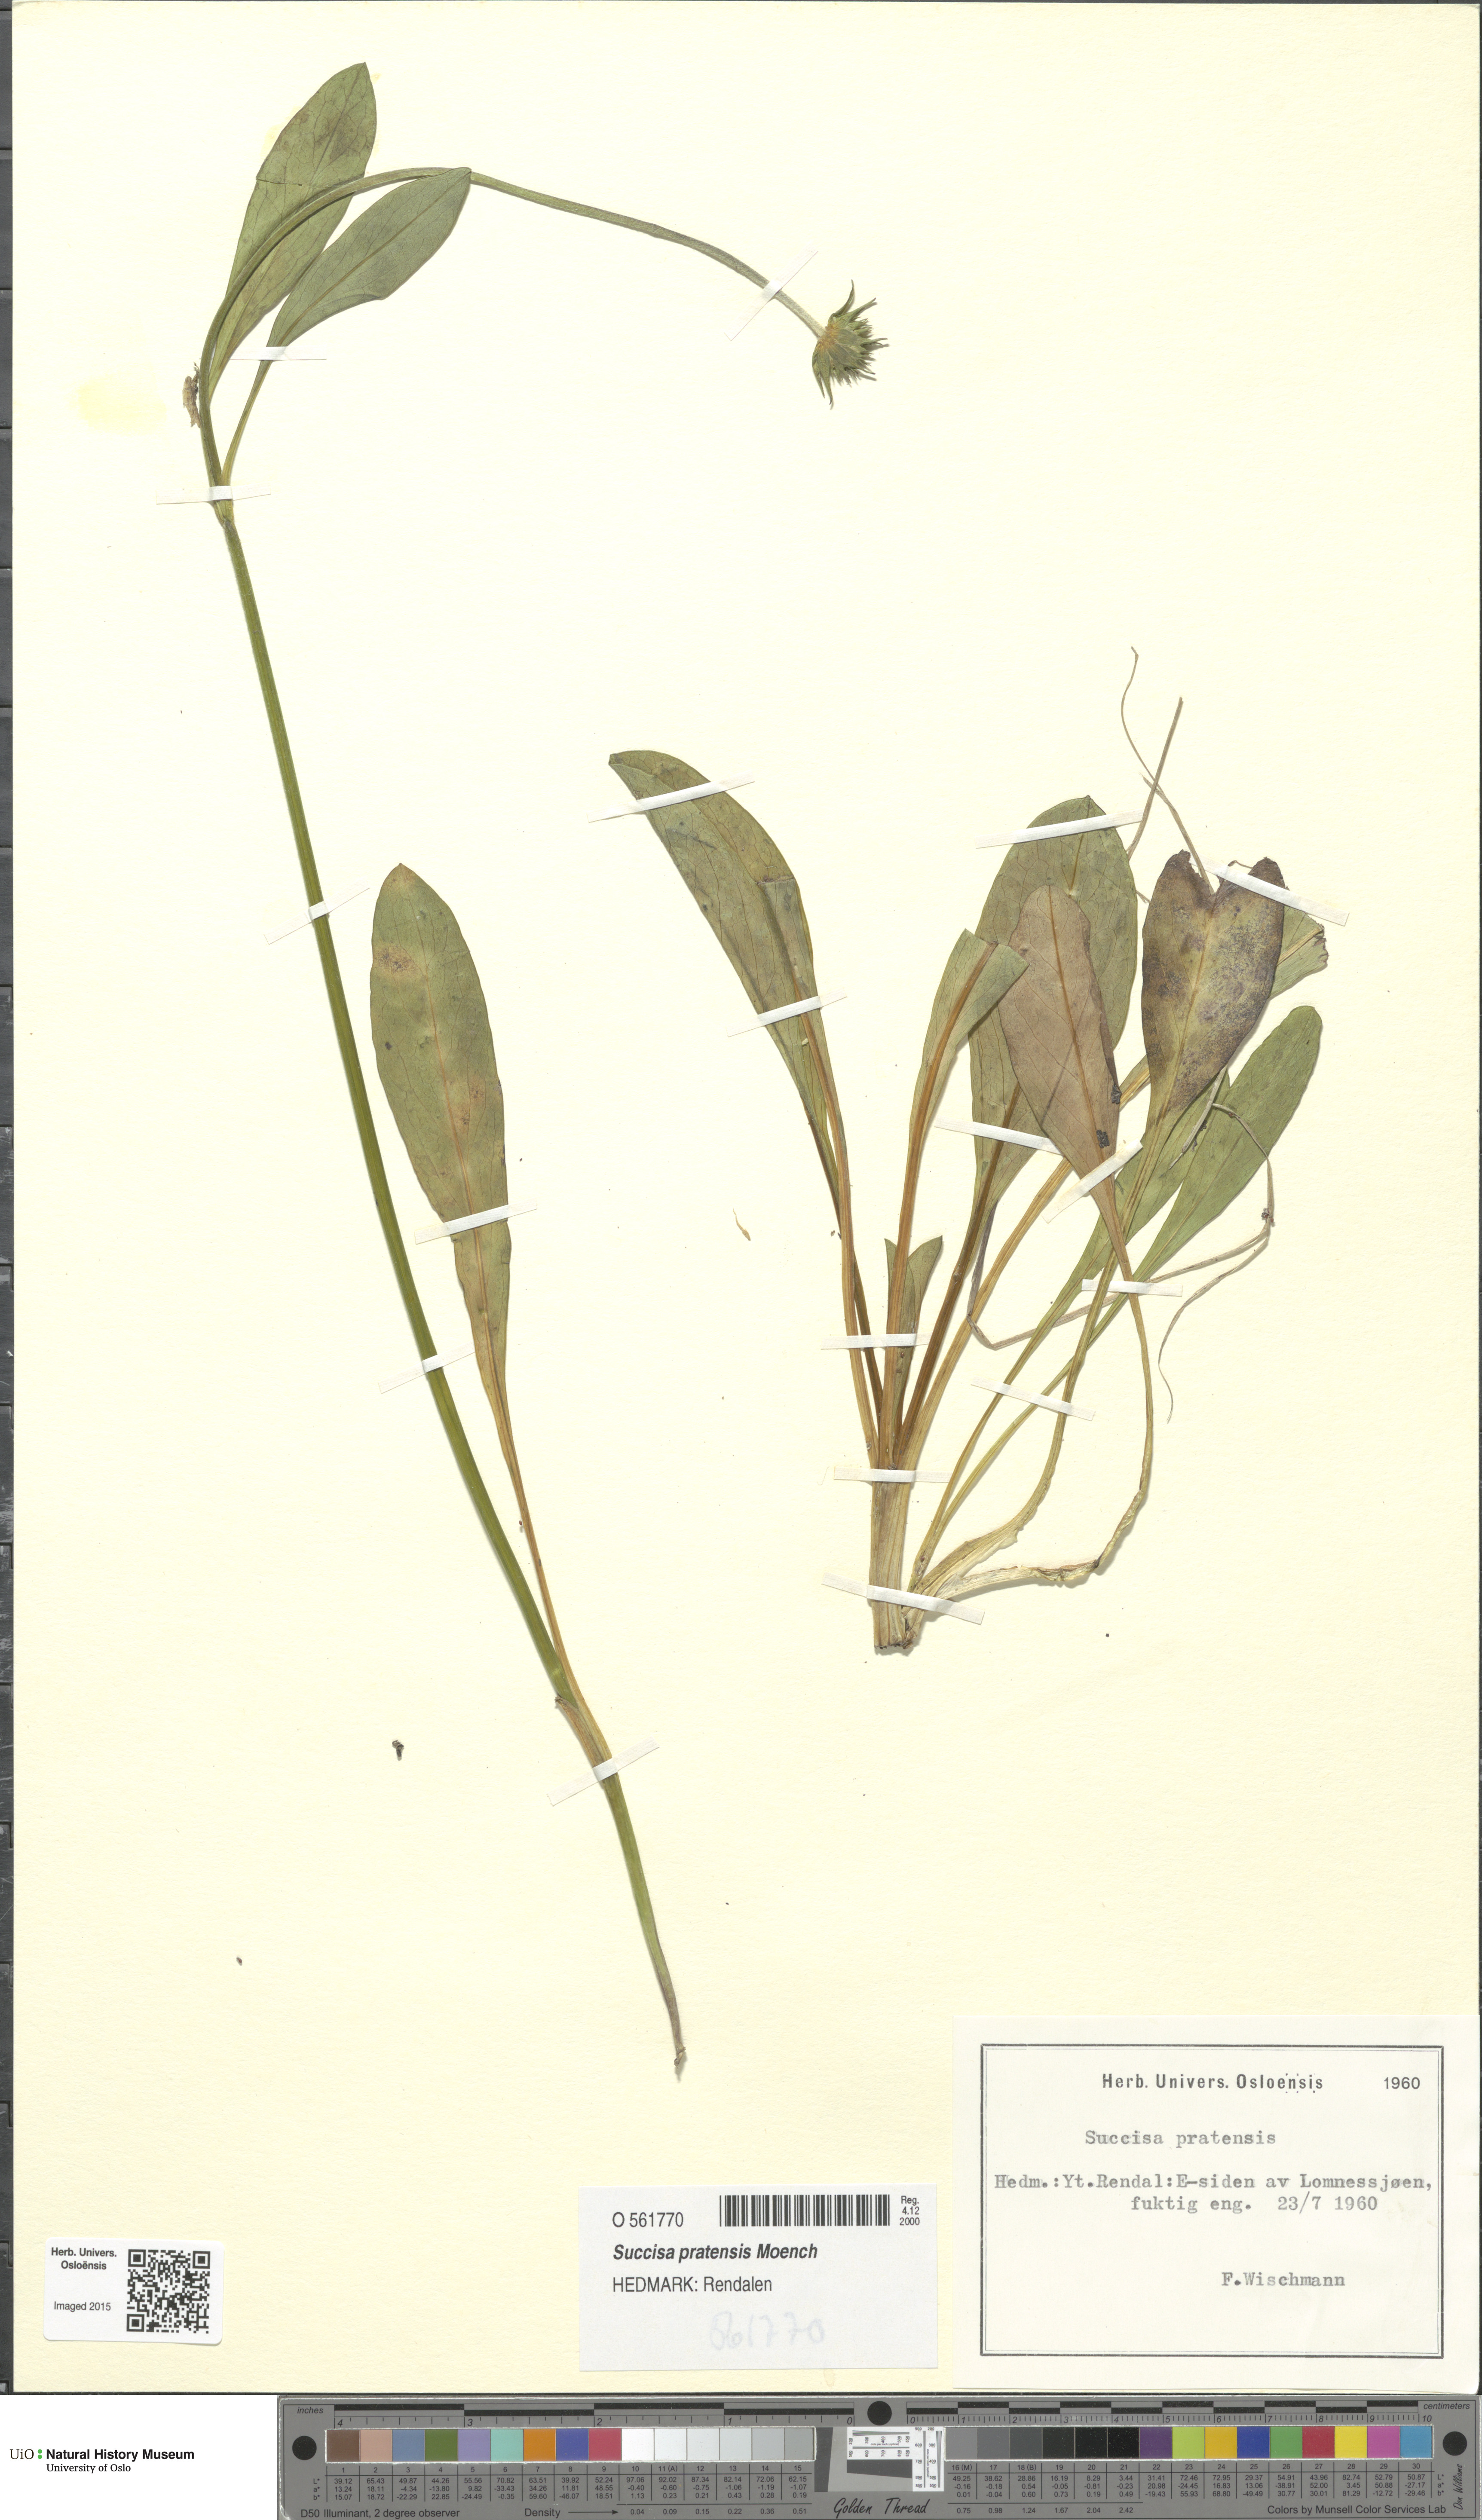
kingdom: Plantae
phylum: Tracheophyta
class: Magnoliopsida
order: Dipsacales
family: Caprifoliaceae
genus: Succisa
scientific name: Succisa pratensis
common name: Devil's-bit
